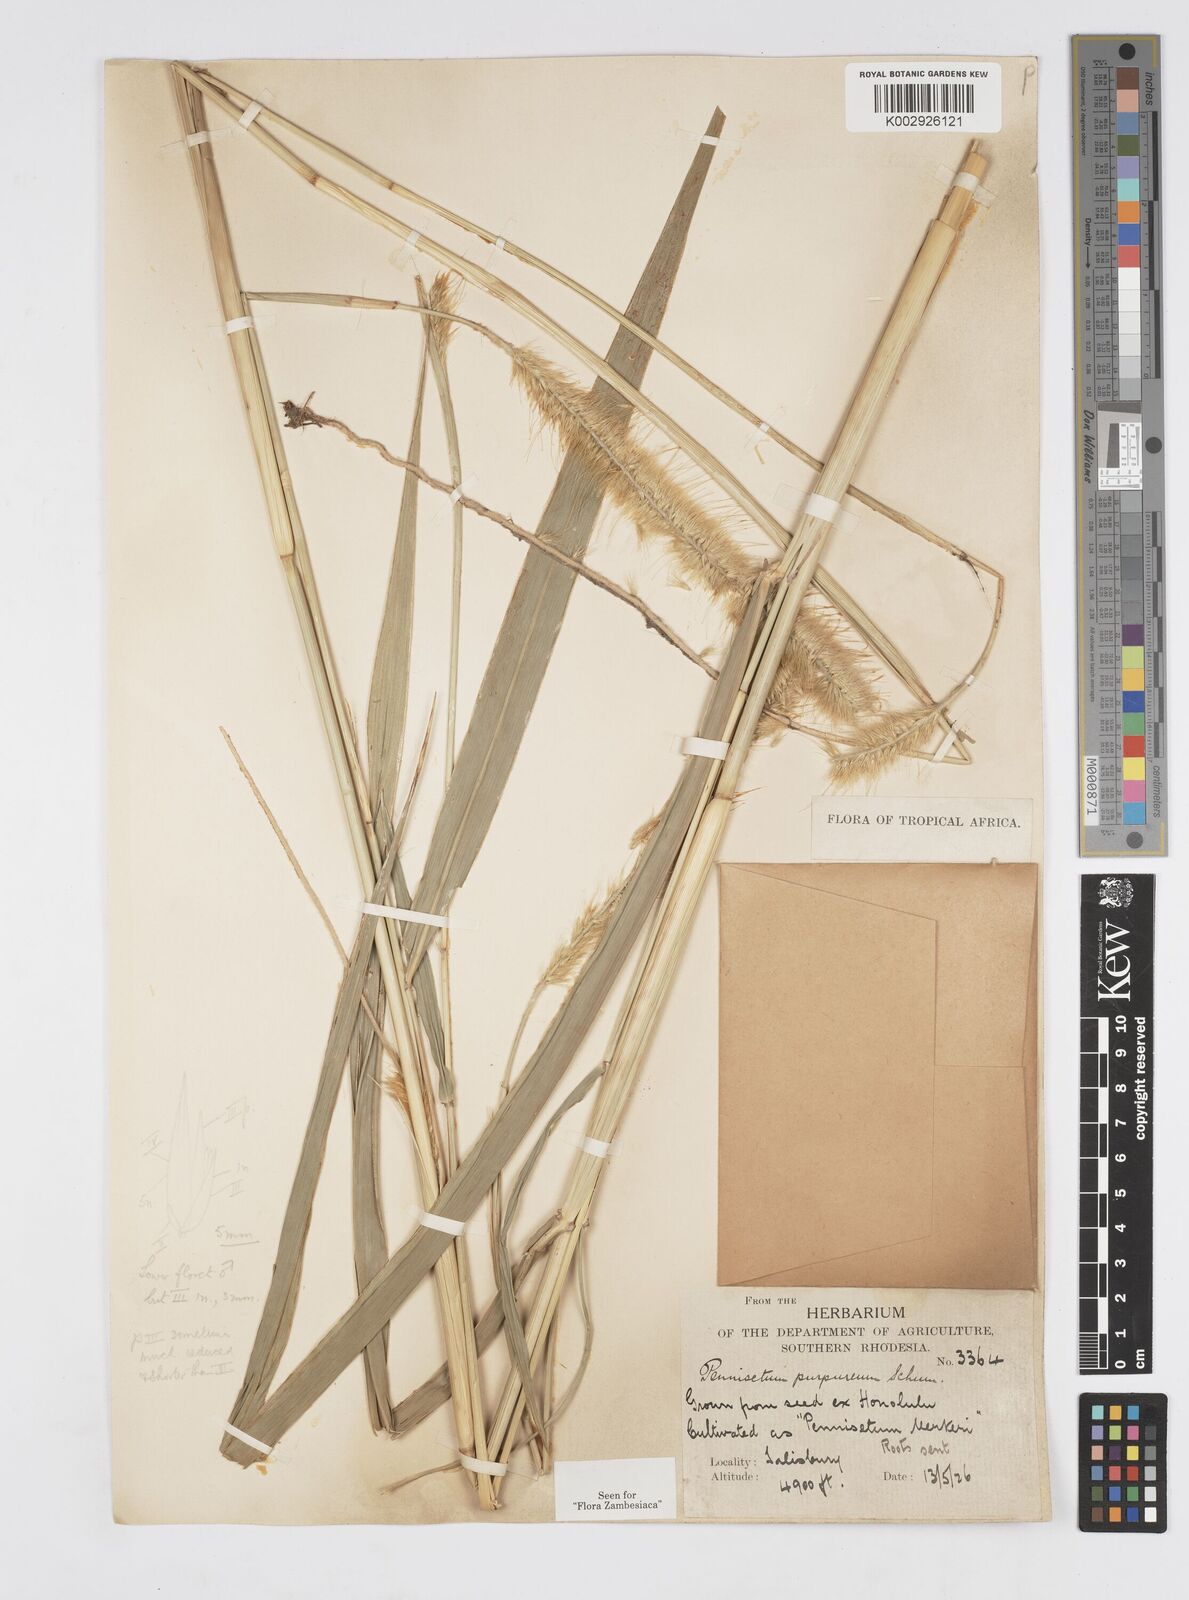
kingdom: Plantae
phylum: Tracheophyta
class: Liliopsida
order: Poales
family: Poaceae
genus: Cenchrus
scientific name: Cenchrus purpureus
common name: Elephant grass
